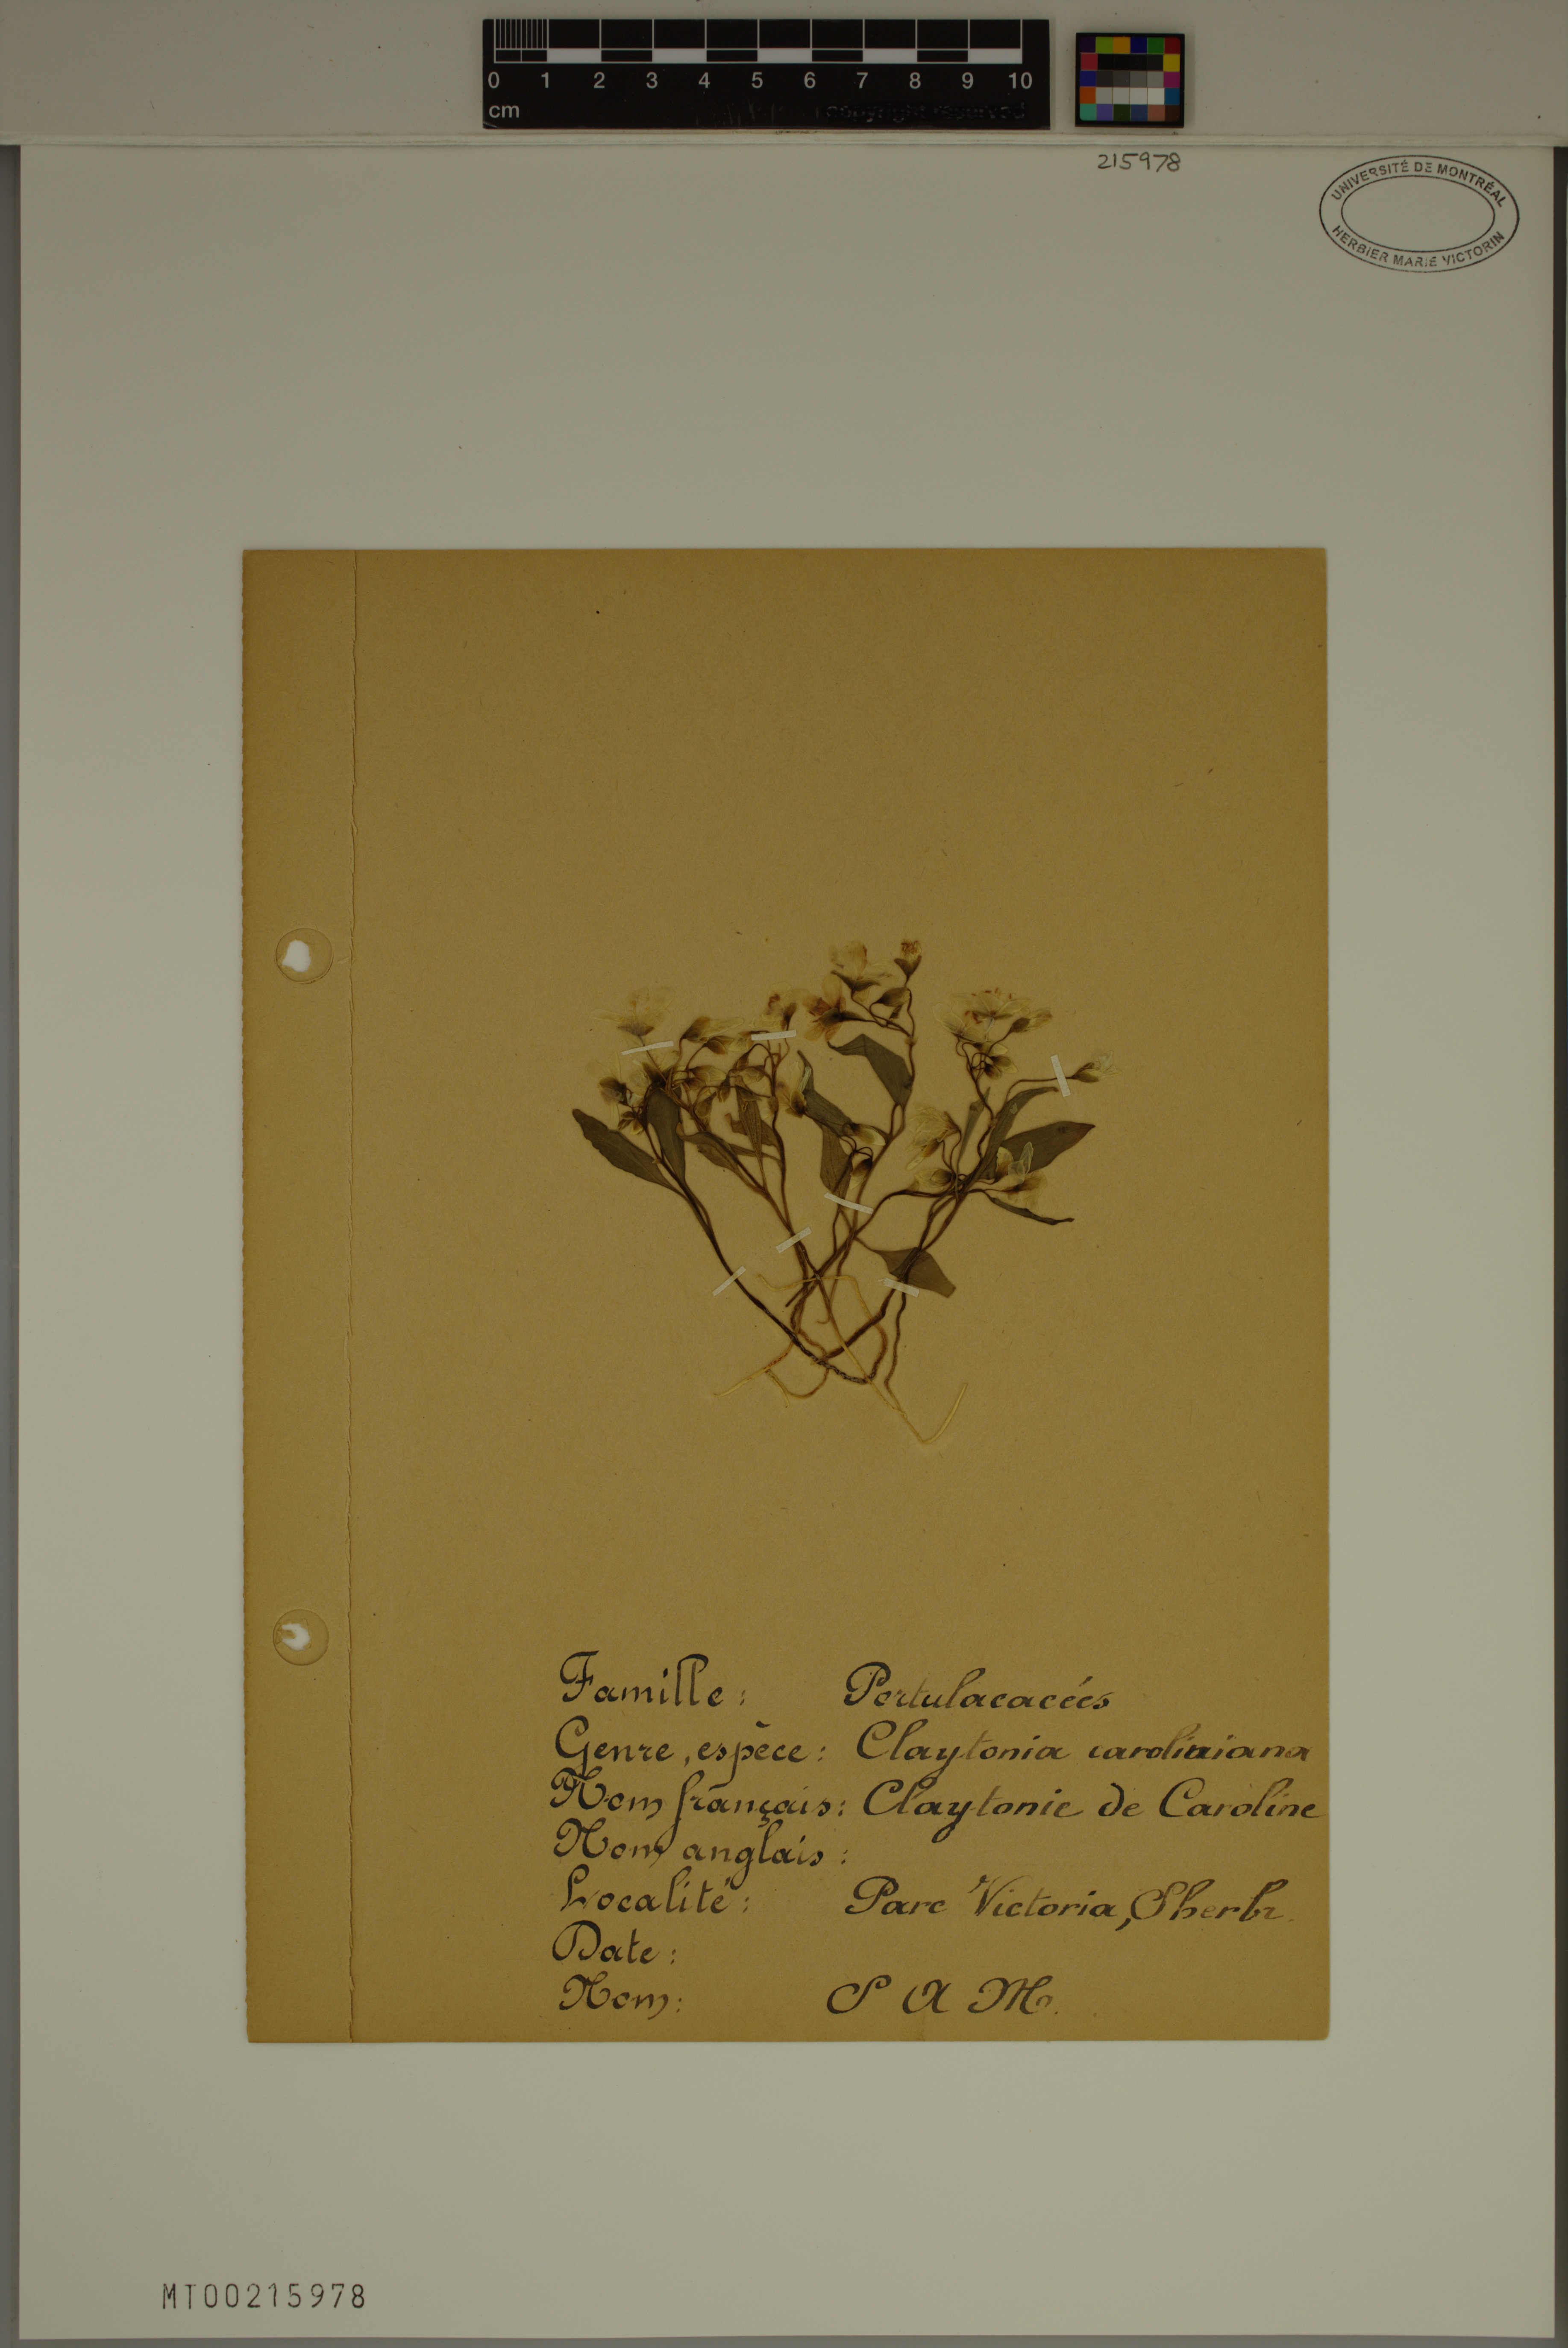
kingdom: Plantae
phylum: Tracheophyta
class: Magnoliopsida
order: Caryophyllales
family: Montiaceae
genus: Claytonia
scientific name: Claytonia caroliniana
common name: Carolina spring beauty
